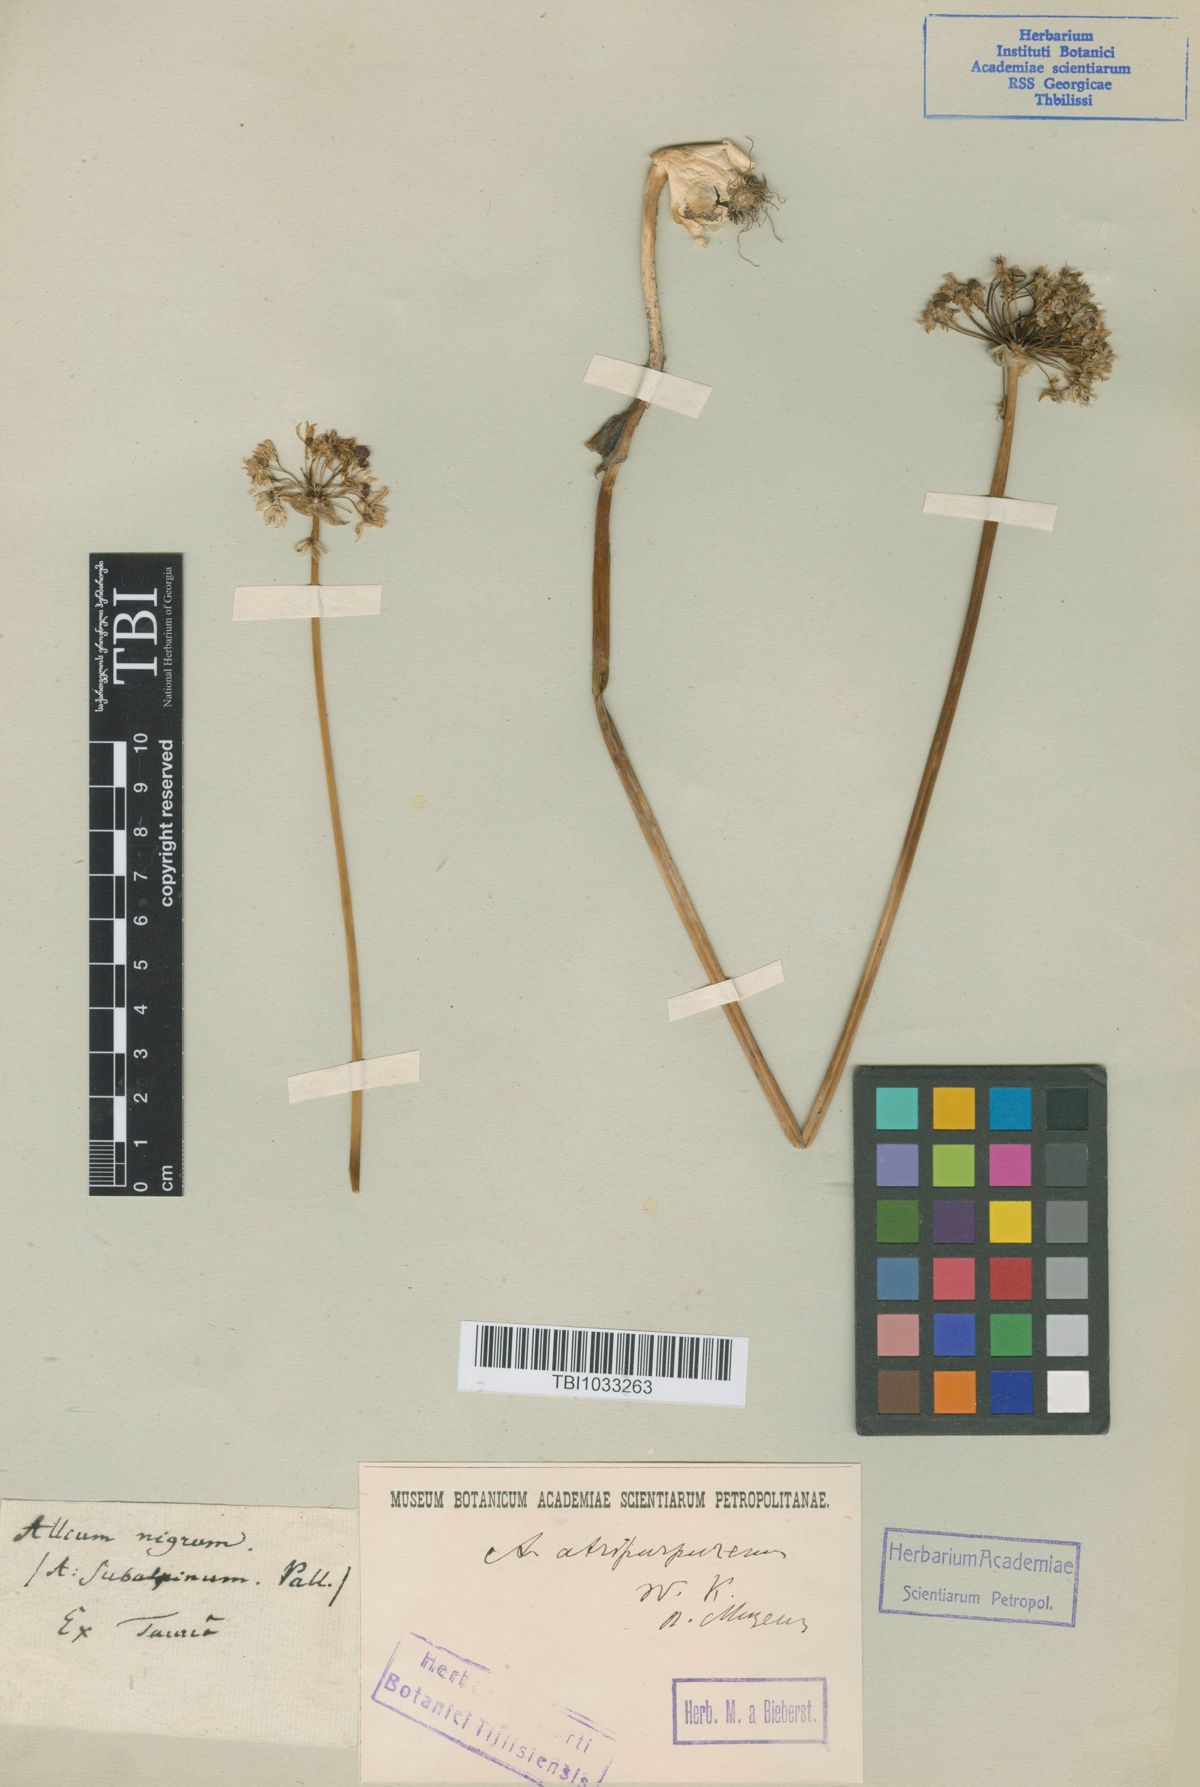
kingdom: Plantae
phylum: Tracheophyta
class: Liliopsida
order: Asparagales
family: Amaryllidaceae
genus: Allium
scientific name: Allium decipiens
